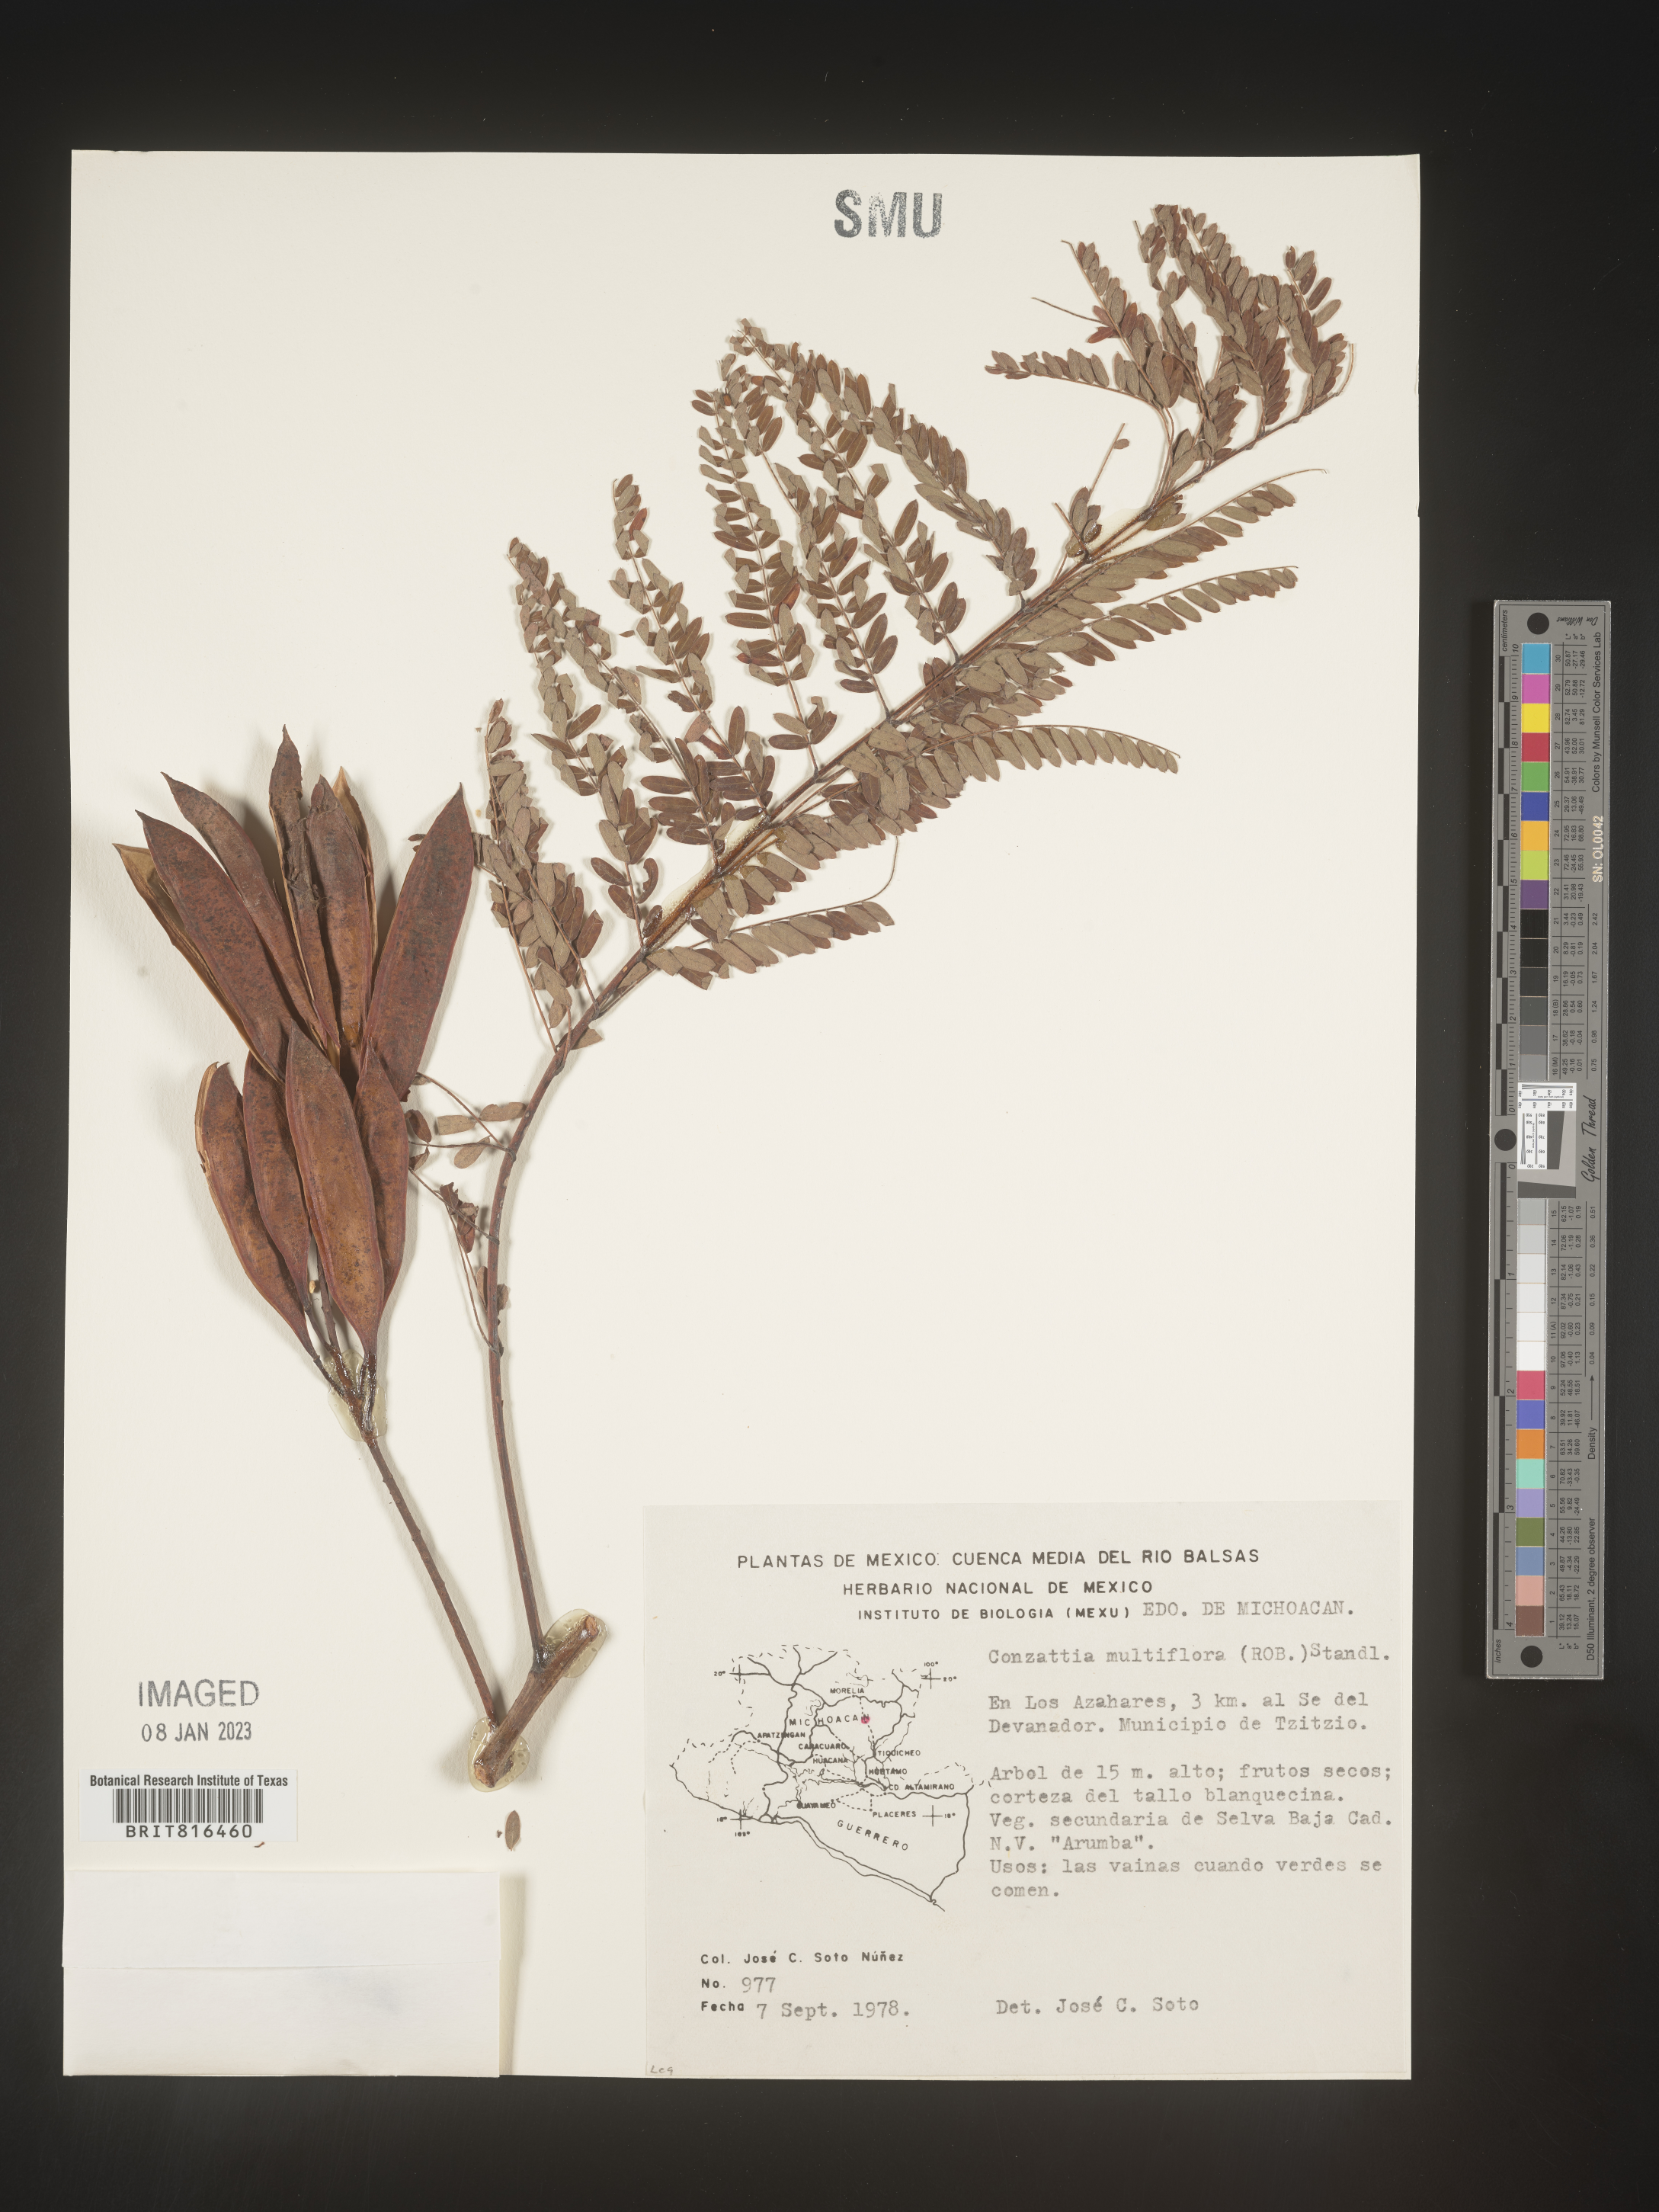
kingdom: Plantae
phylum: Tracheophyta
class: Magnoliopsida
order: Fabales
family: Fabaceae
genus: Conzattia
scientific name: Conzattia
